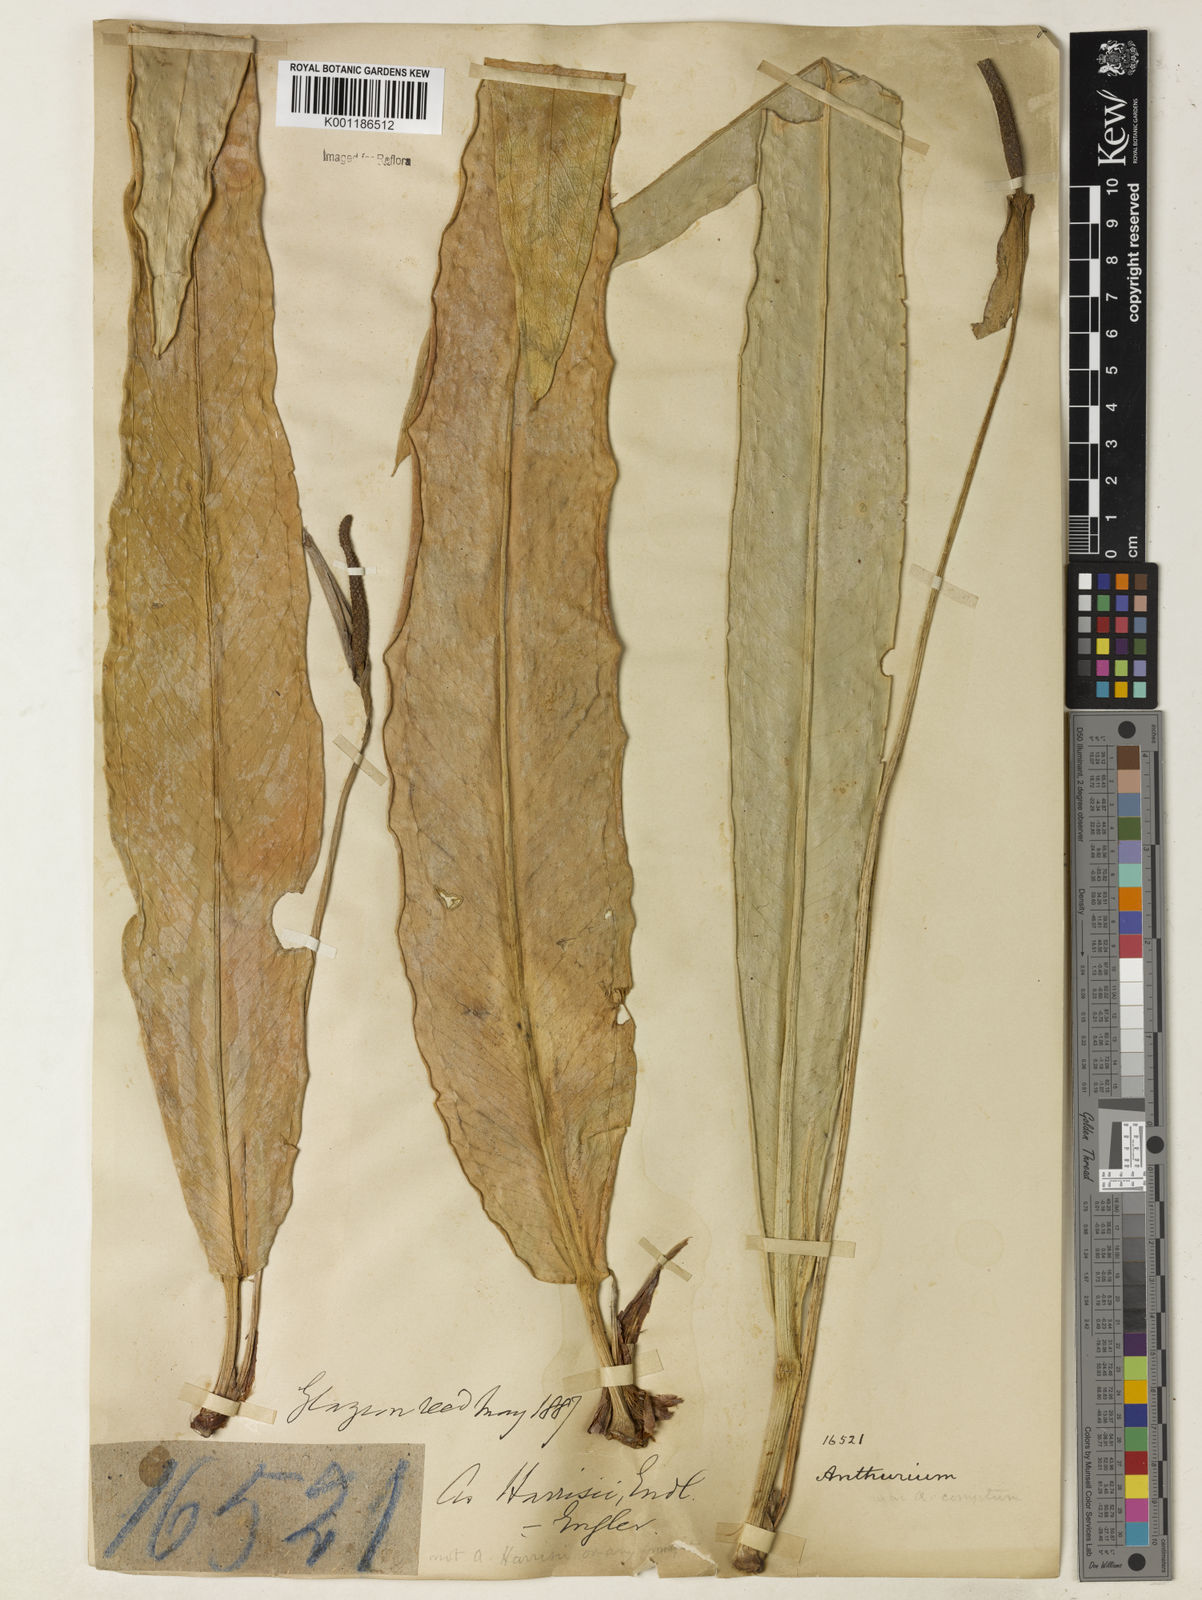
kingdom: Plantae
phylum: Tracheophyta
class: Liliopsida
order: Alismatales
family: Araceae
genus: Anthurium
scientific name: Anthurium harrisii
